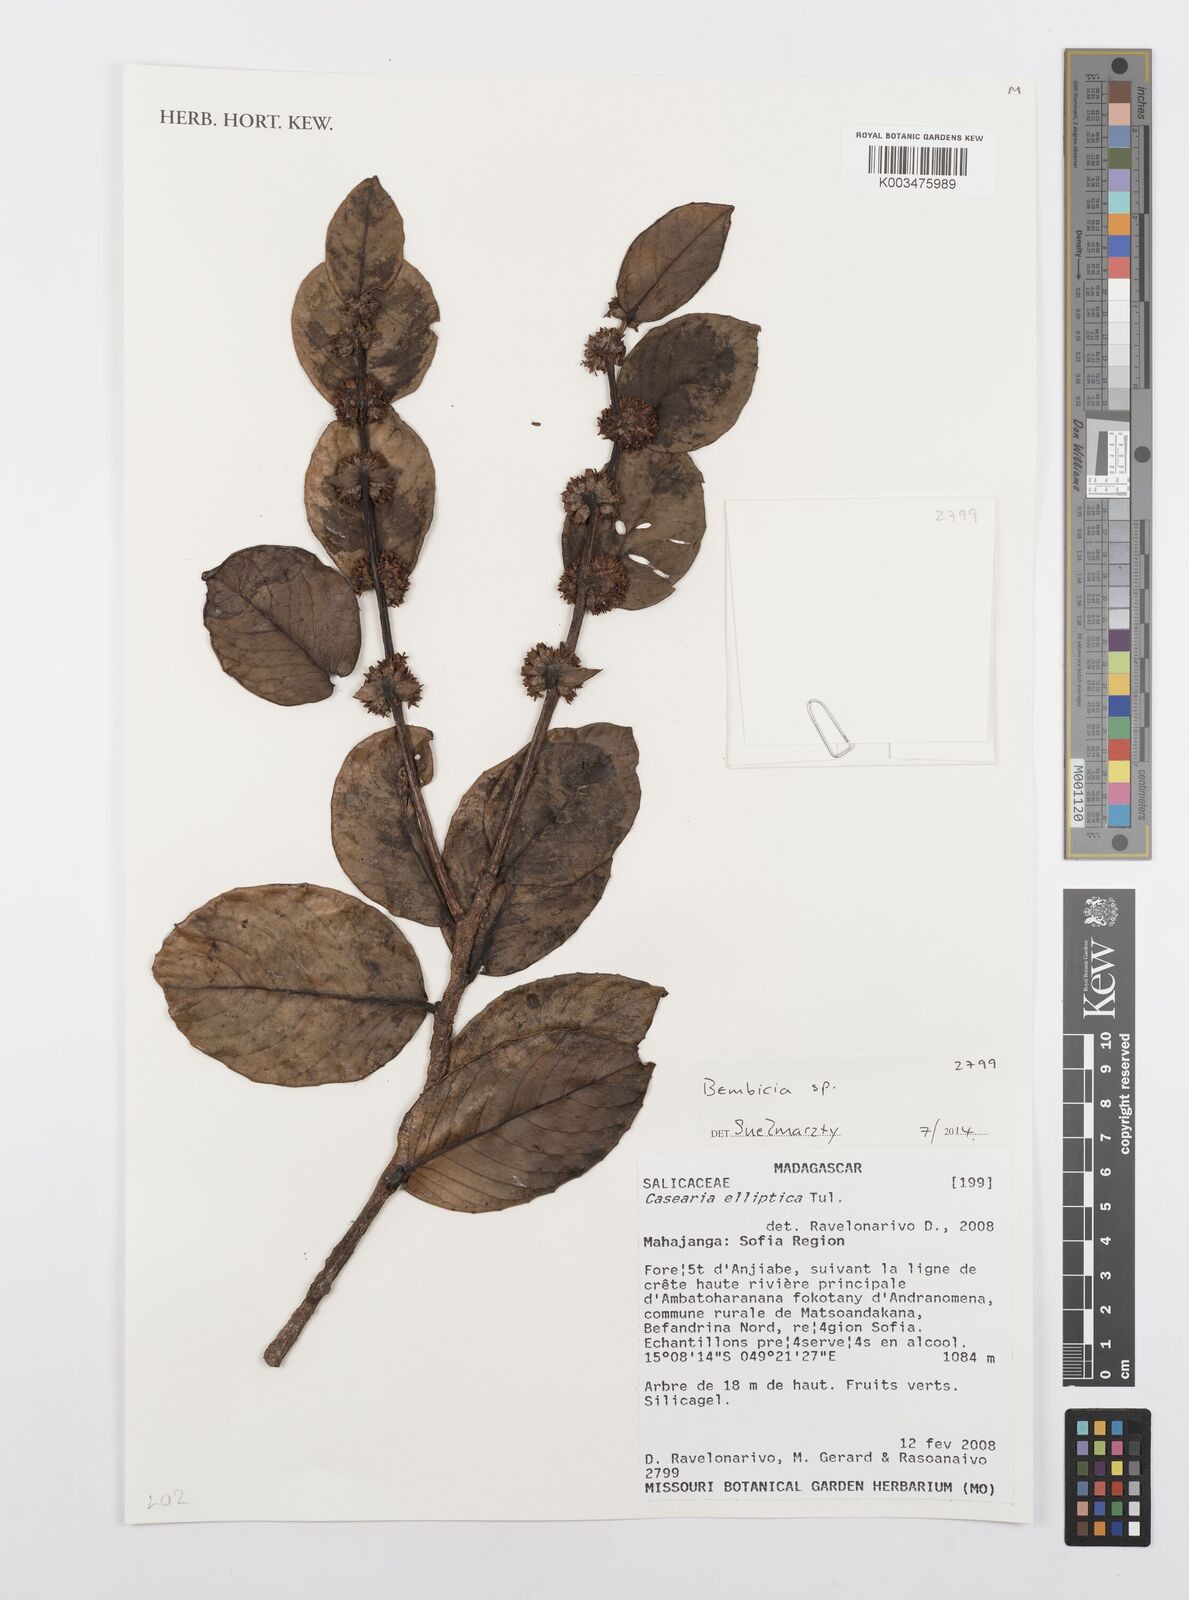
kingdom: Plantae
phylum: Tracheophyta
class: Magnoliopsida
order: Malpighiales
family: Salicaceae
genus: Bembicia
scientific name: Bembicia
